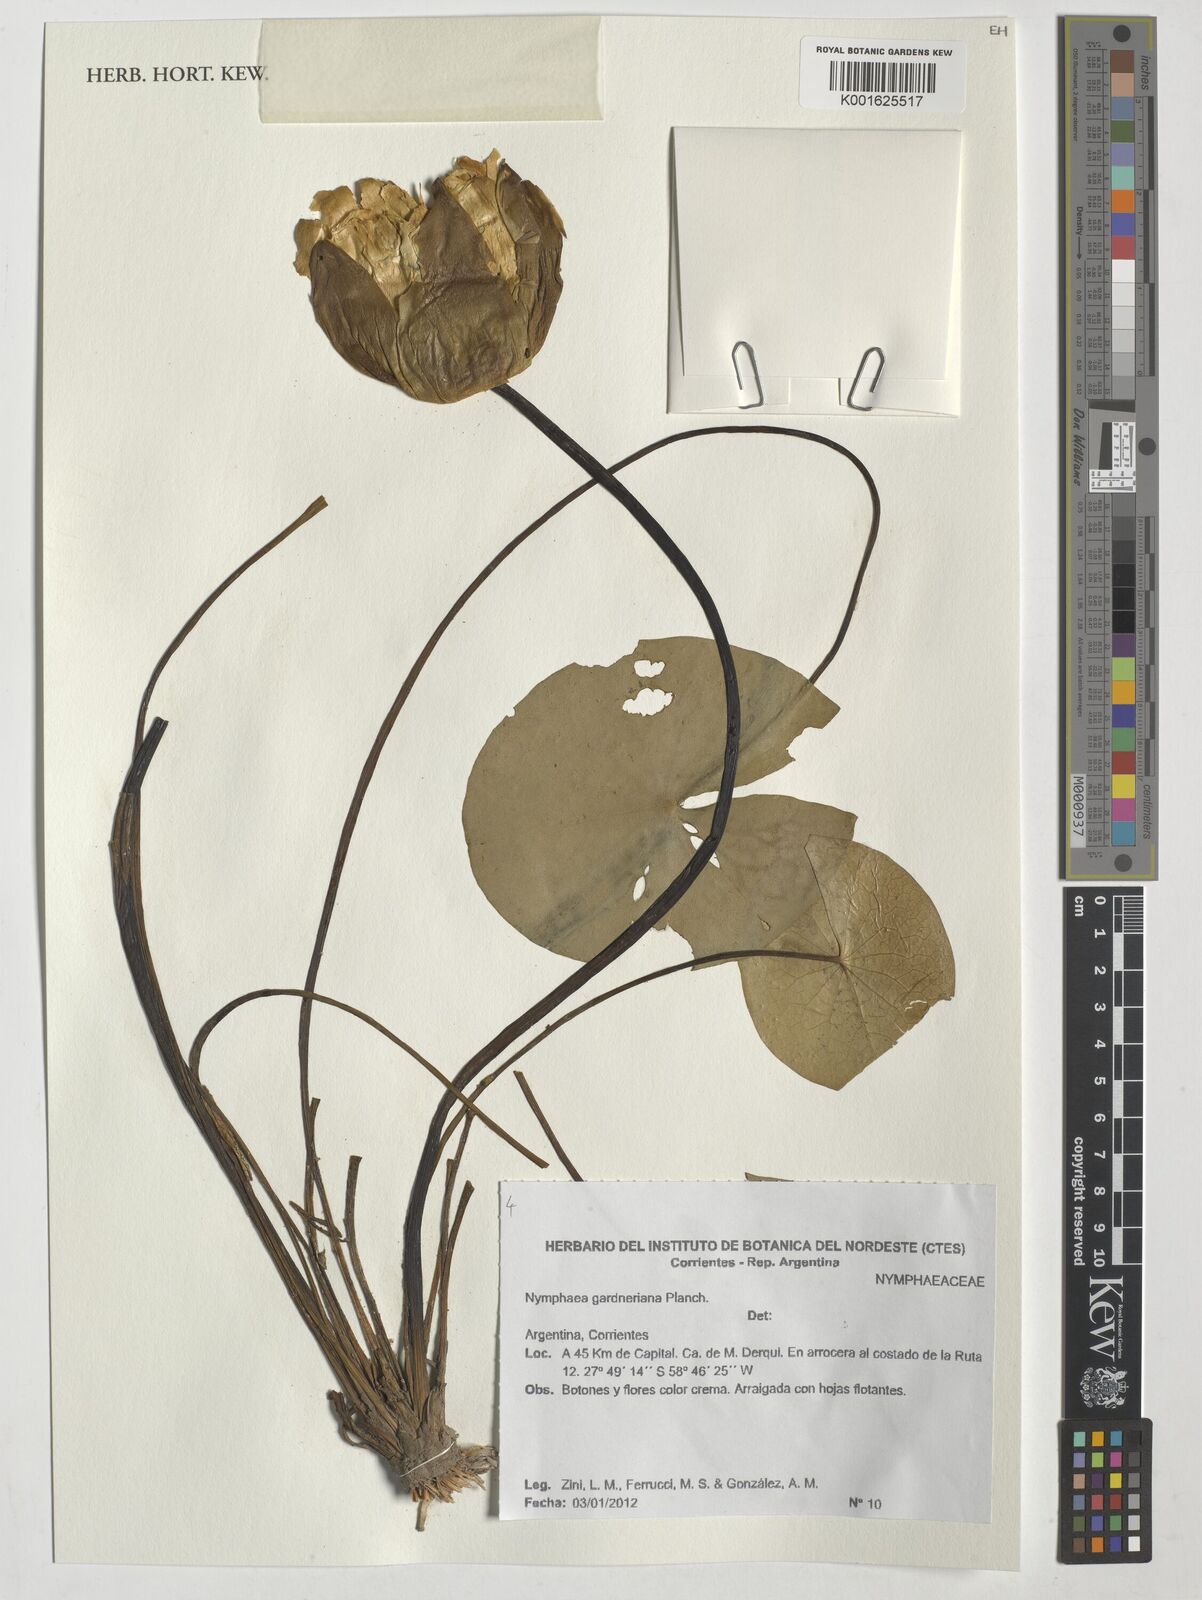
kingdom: Plantae
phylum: Tracheophyta
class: Magnoliopsida
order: Nymphaeales
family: Nymphaeaceae
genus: Nymphaea
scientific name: Nymphaea gardneriana
